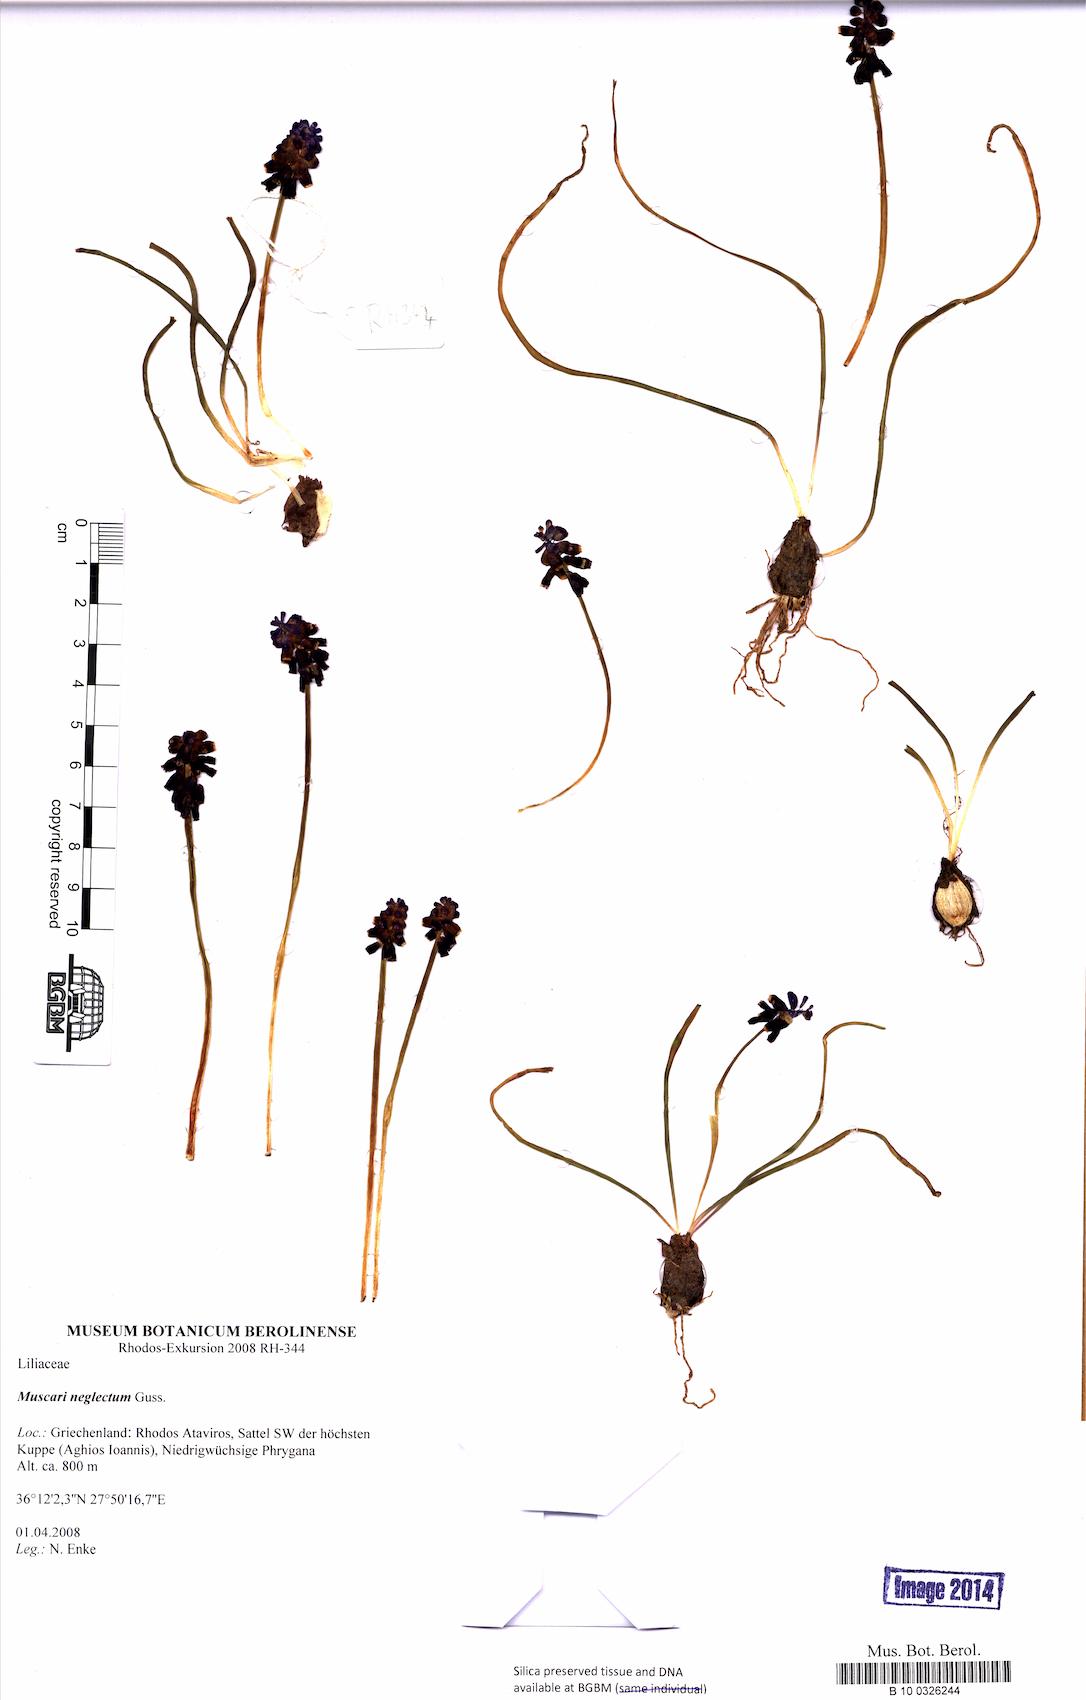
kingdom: Plantae
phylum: Tracheophyta
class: Liliopsida
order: Asparagales
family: Asparagaceae
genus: Muscari
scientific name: Muscari neglectum
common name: Grape-hyacinth
